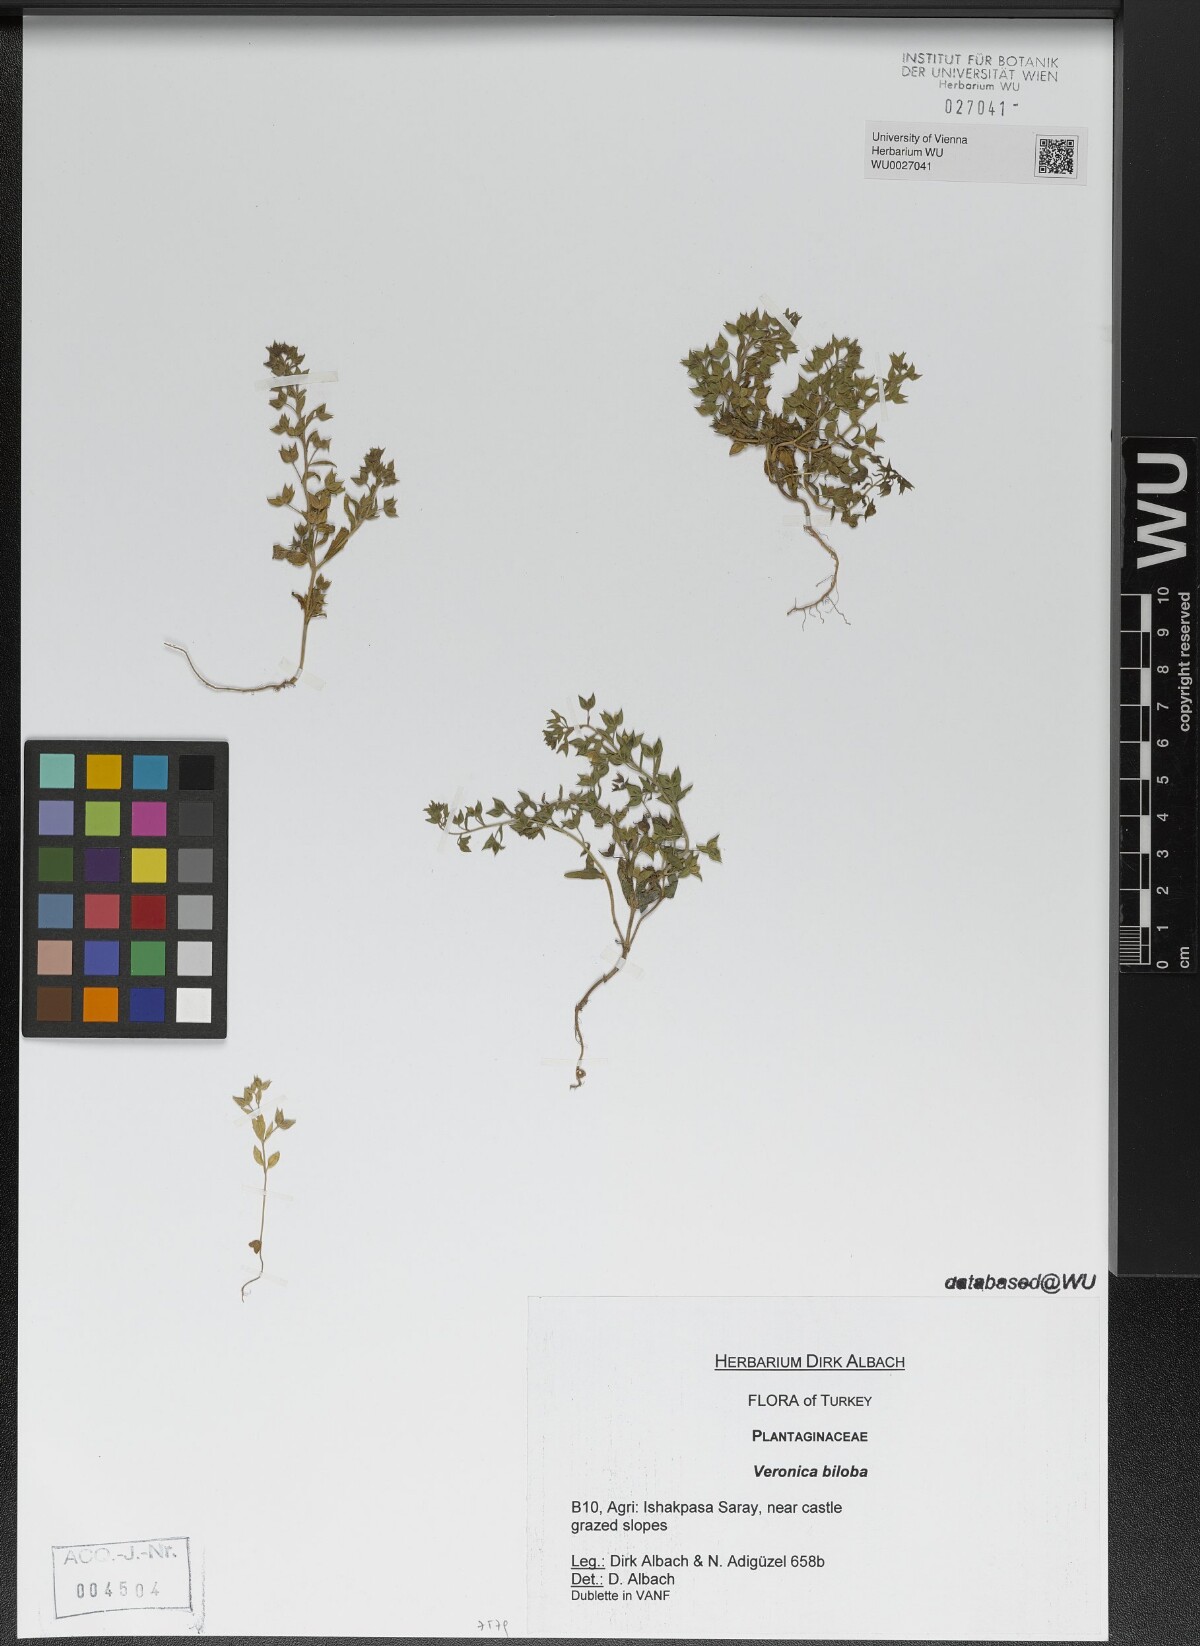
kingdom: Plantae
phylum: Tracheophyta
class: Magnoliopsida
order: Lamiales
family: Plantaginaceae
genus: Veronica
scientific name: Veronica biloba
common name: Twolobe speedwell
